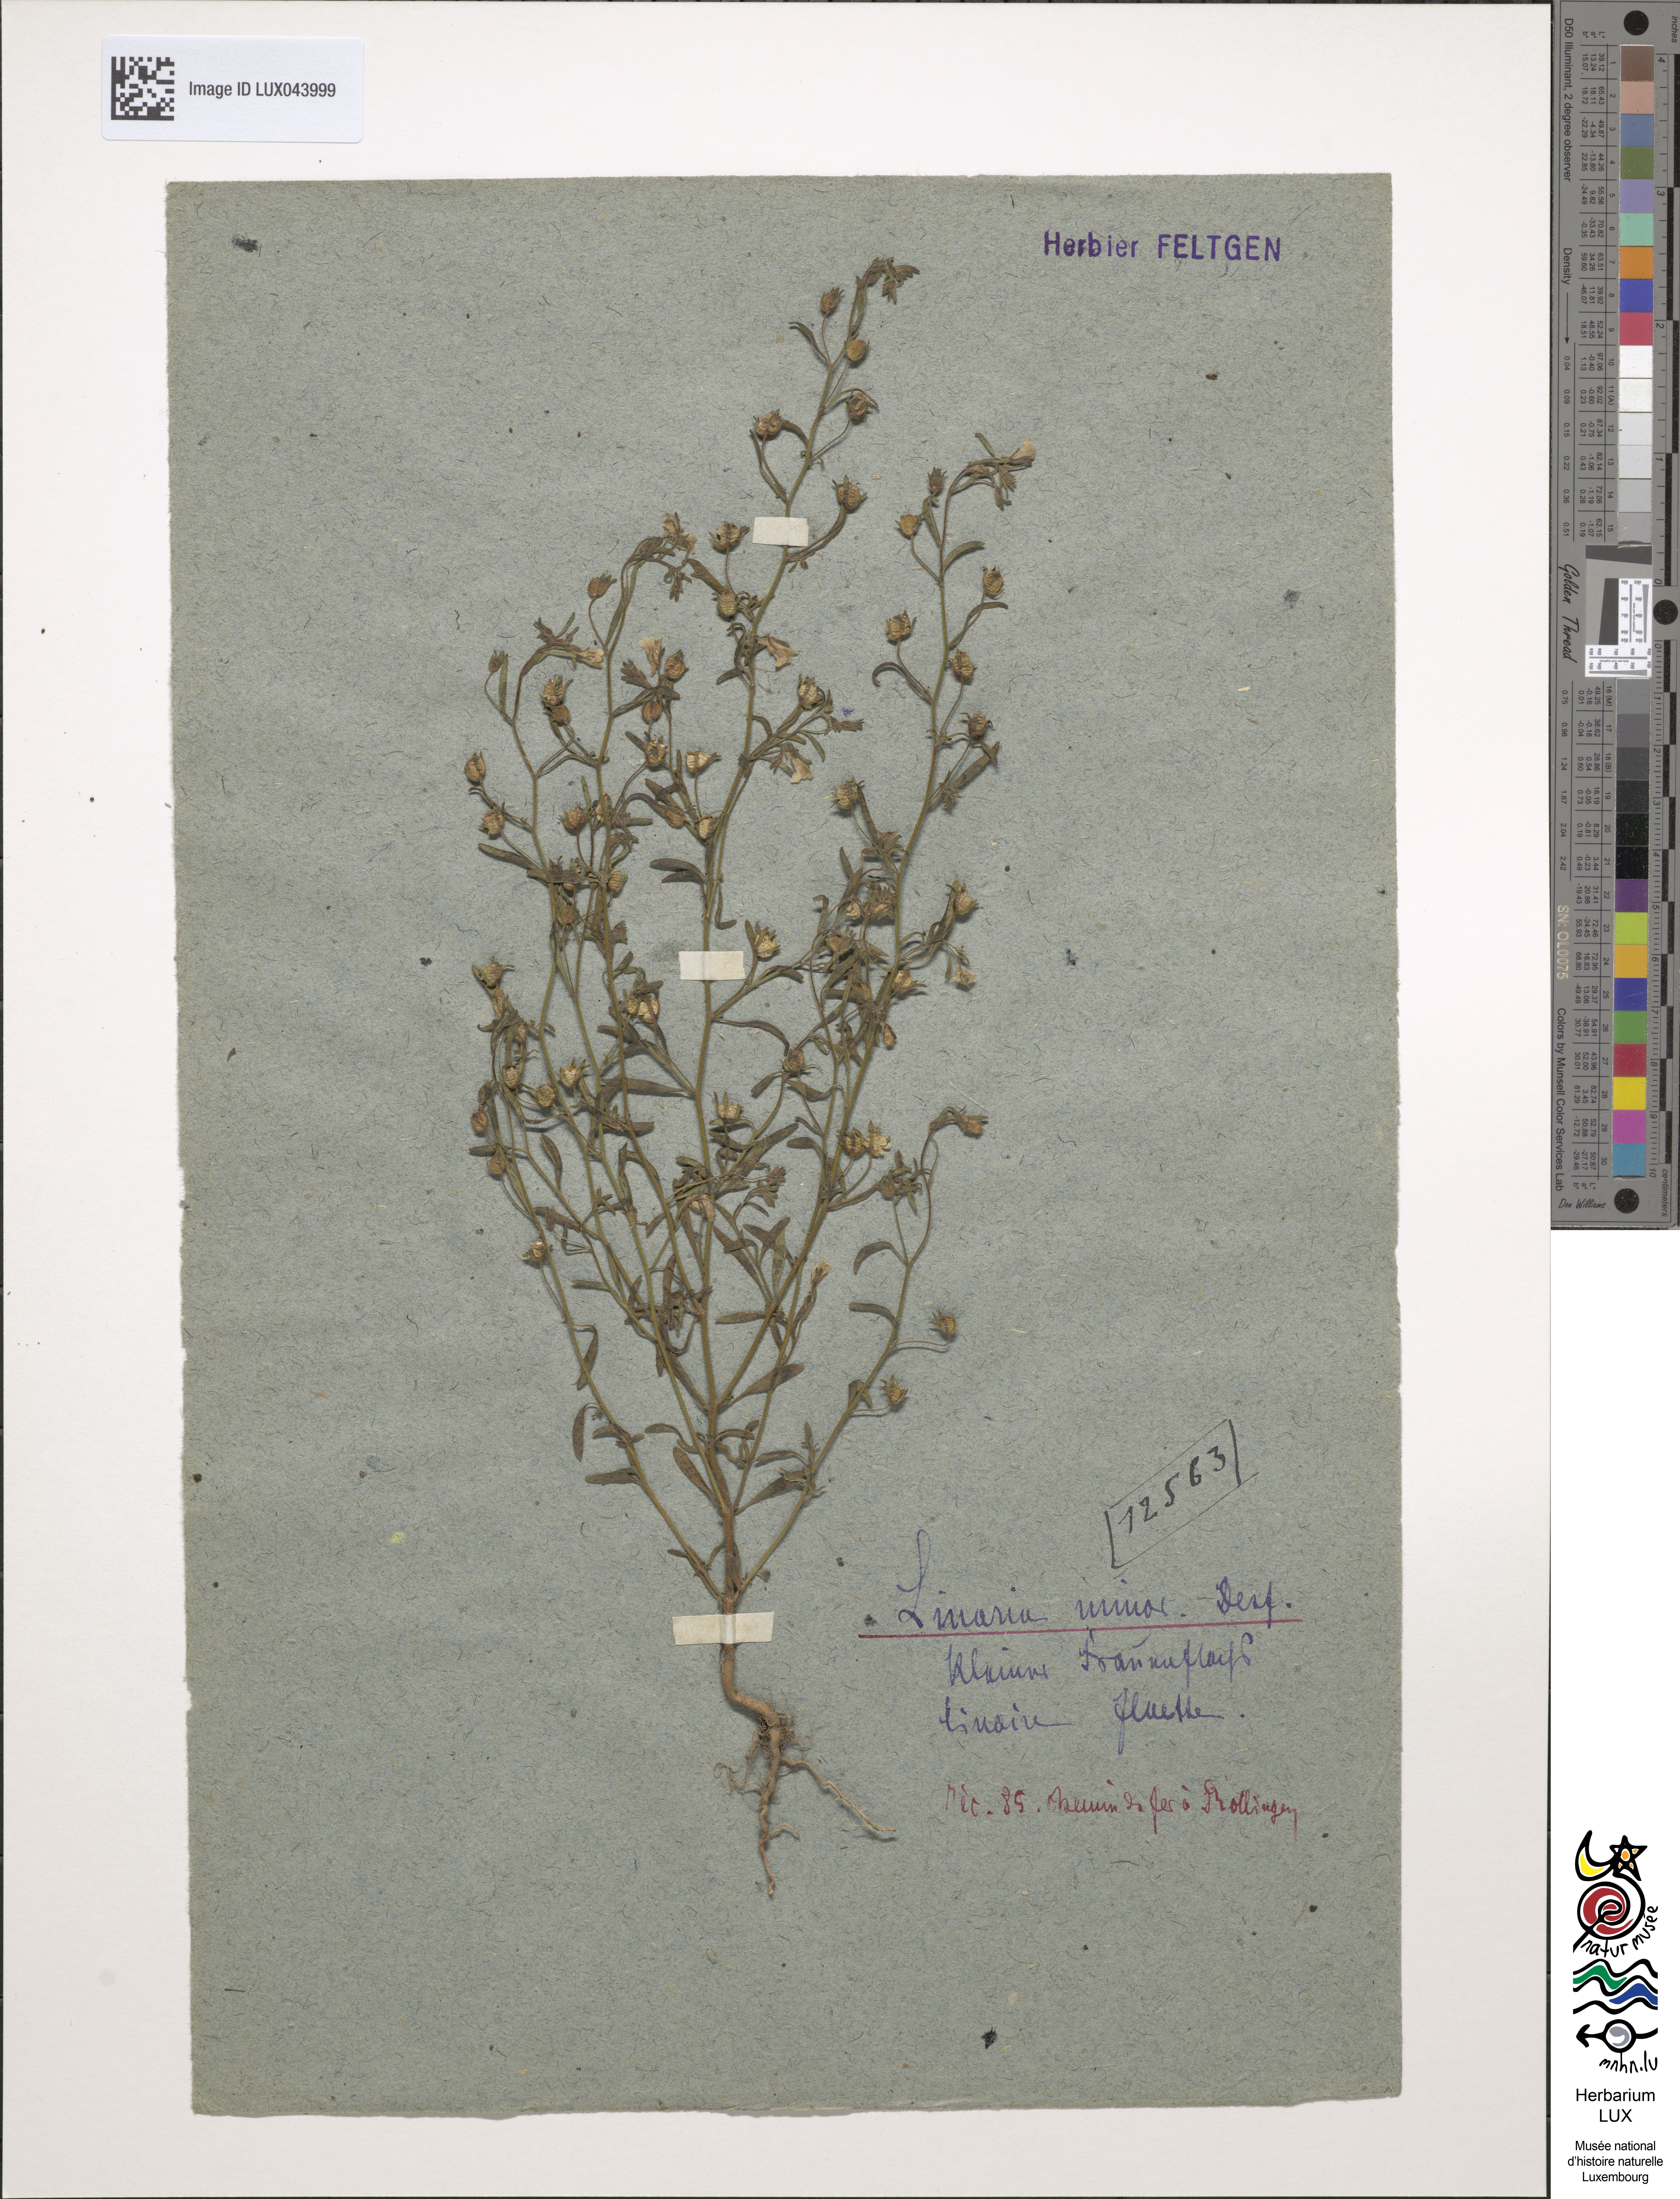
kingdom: Plantae
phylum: Tracheophyta
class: Magnoliopsida
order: Lamiales
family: Plantaginaceae
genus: Chaenorhinum
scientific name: Chaenorhinum minus
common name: Dwarf snapdragon
